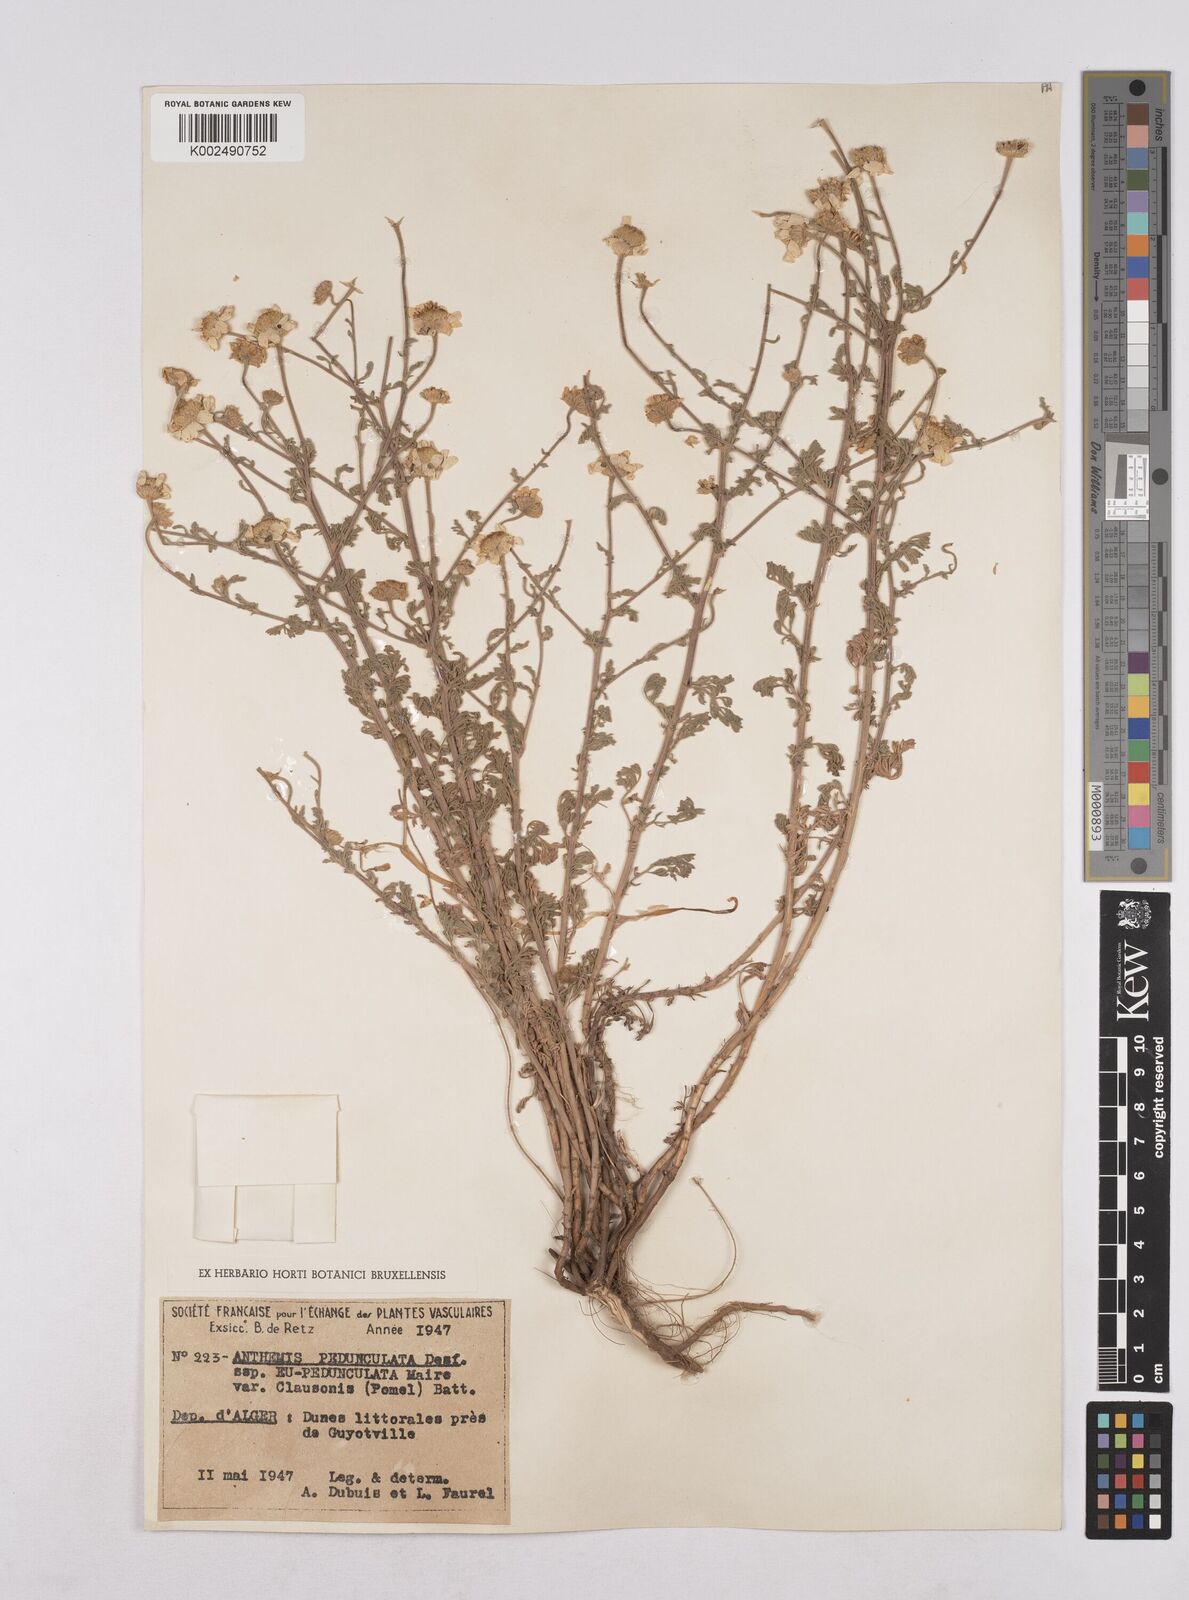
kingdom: Plantae
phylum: Tracheophyta
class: Magnoliopsida
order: Asterales
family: Asteraceae
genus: Mecomischus
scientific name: Mecomischus pedunculatus
